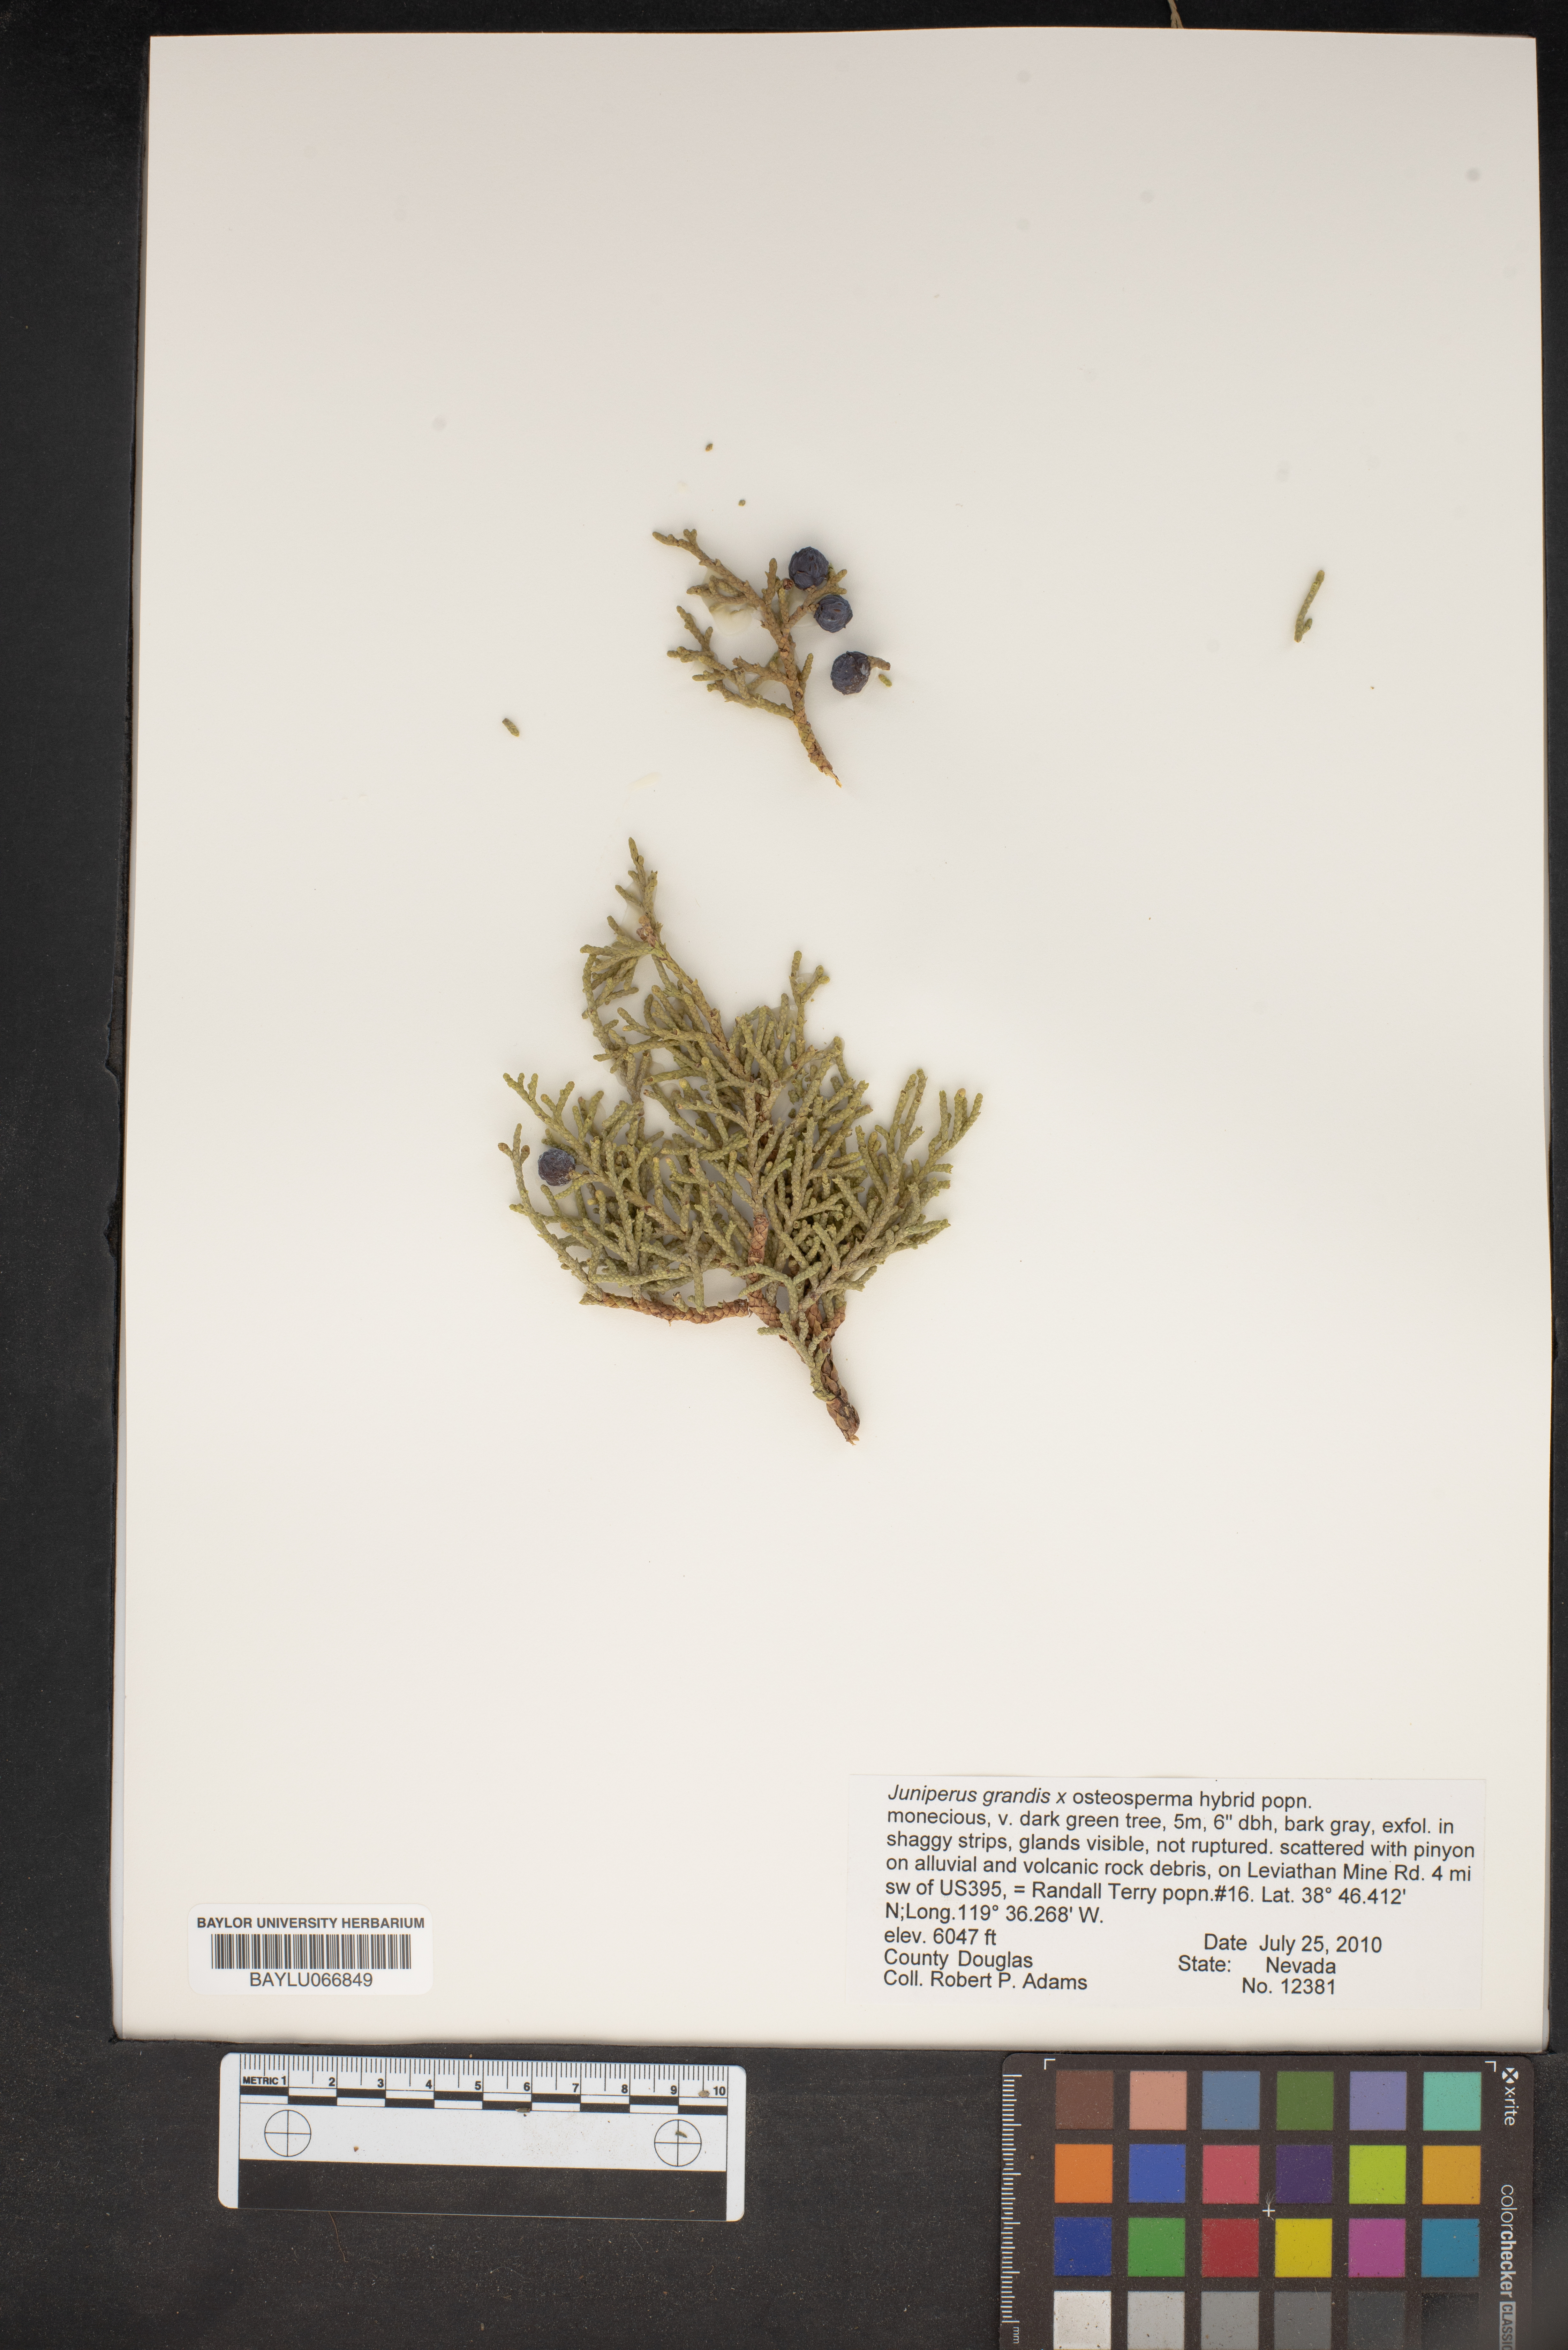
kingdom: Plantae
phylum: Tracheophyta
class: Pinopsida
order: Pinales
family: Cupressaceae
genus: Juniperus
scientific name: Juniperus occidentalis
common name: Western juniper
